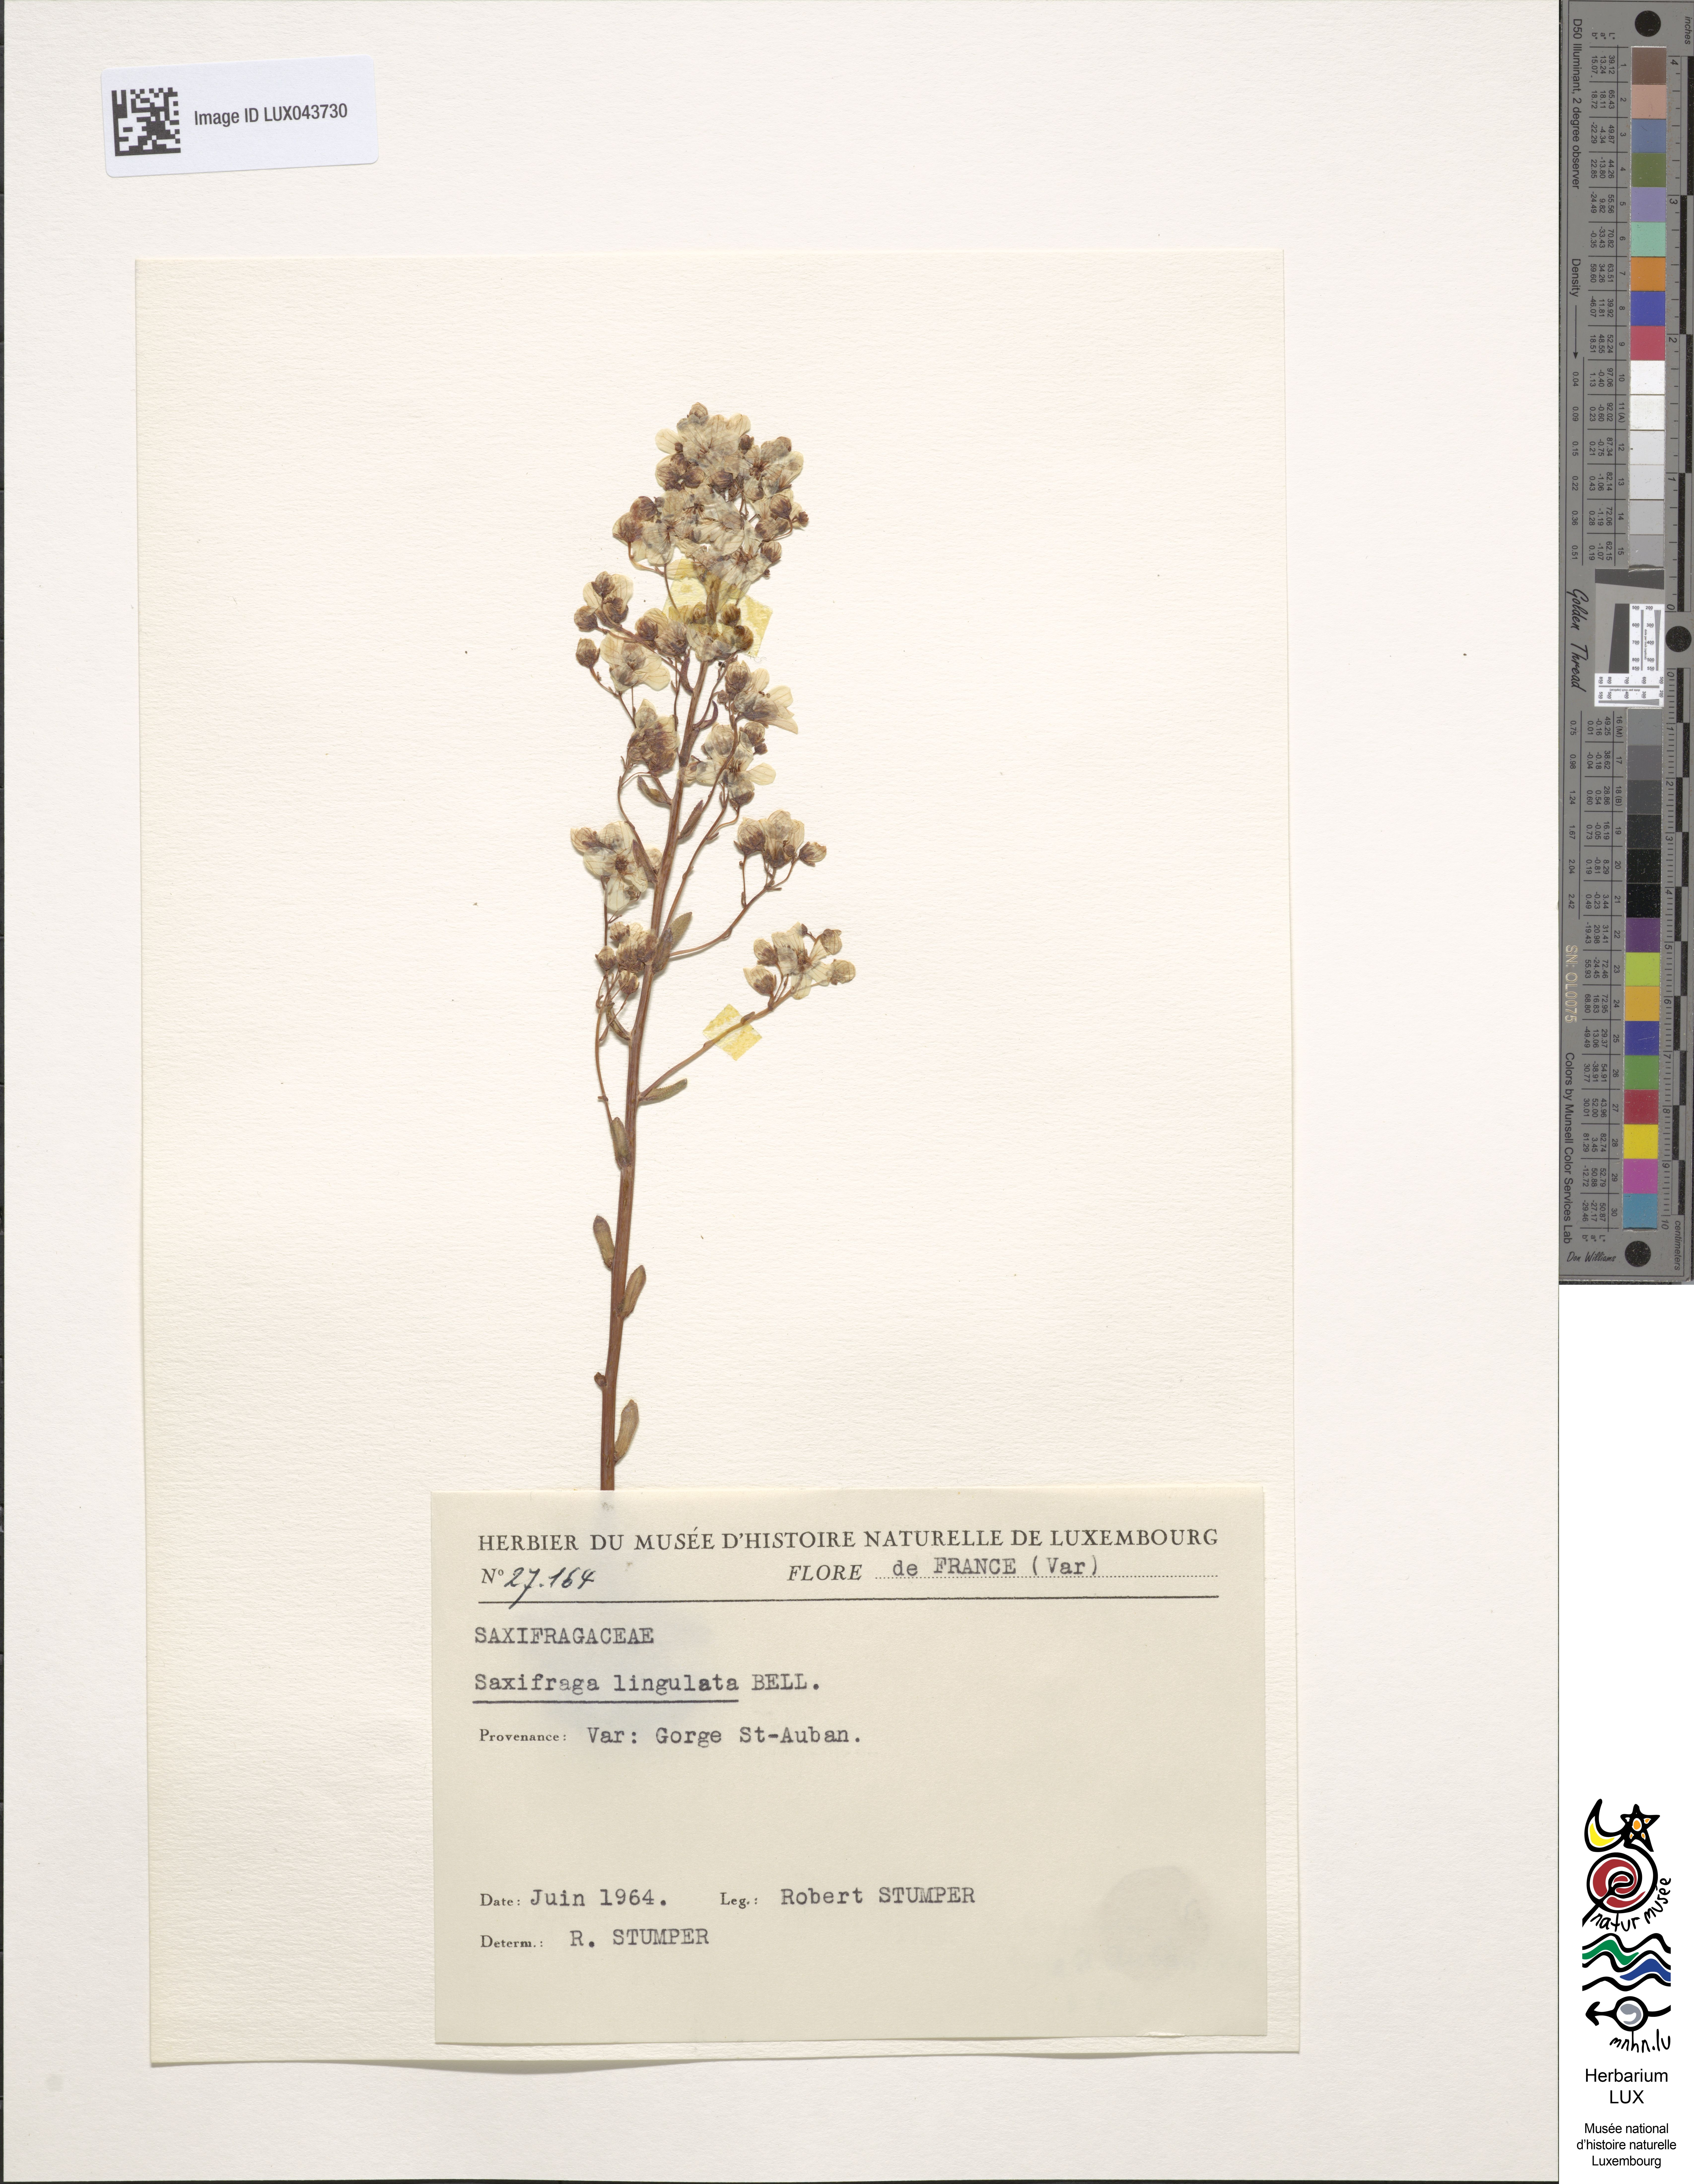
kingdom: Plantae
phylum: Tracheophyta
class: Magnoliopsida
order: Saxifragales
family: Saxifragaceae
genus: Saxifraga
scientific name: Saxifraga callosa
